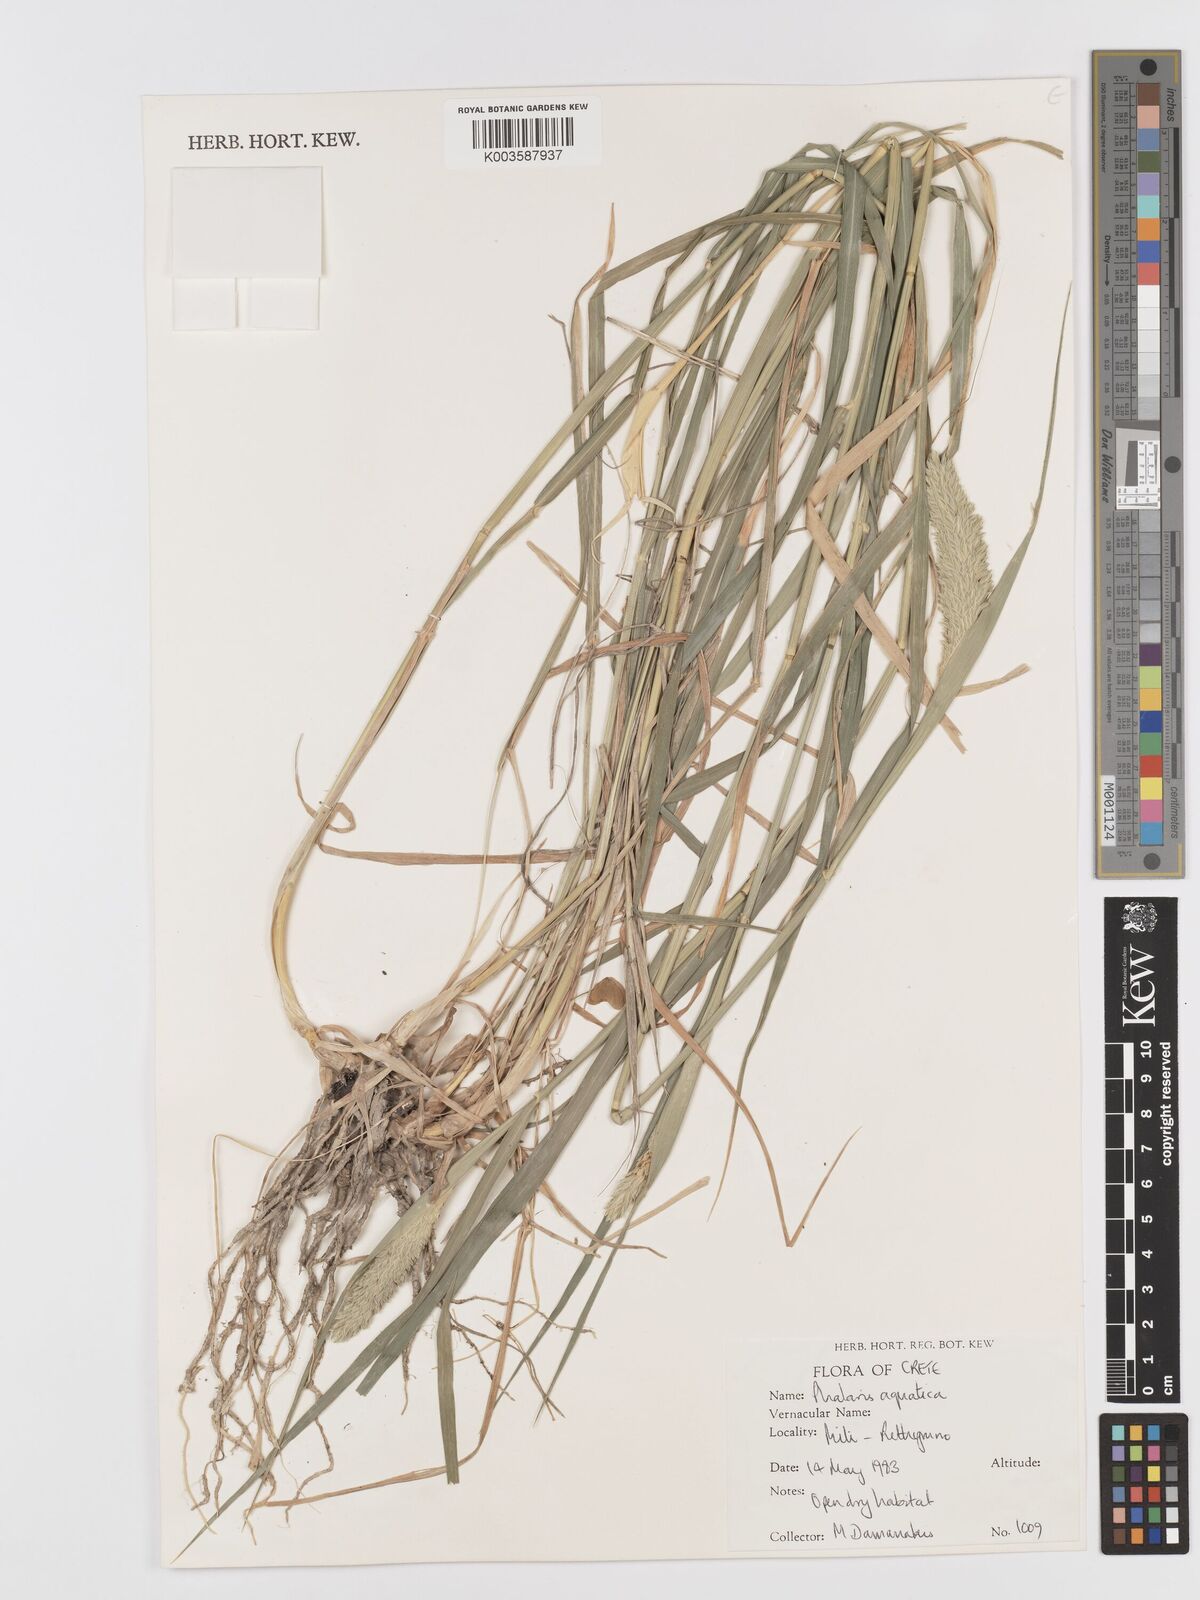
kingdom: Plantae
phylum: Tracheophyta
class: Liliopsida
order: Poales
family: Poaceae
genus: Phalaris
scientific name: Phalaris
